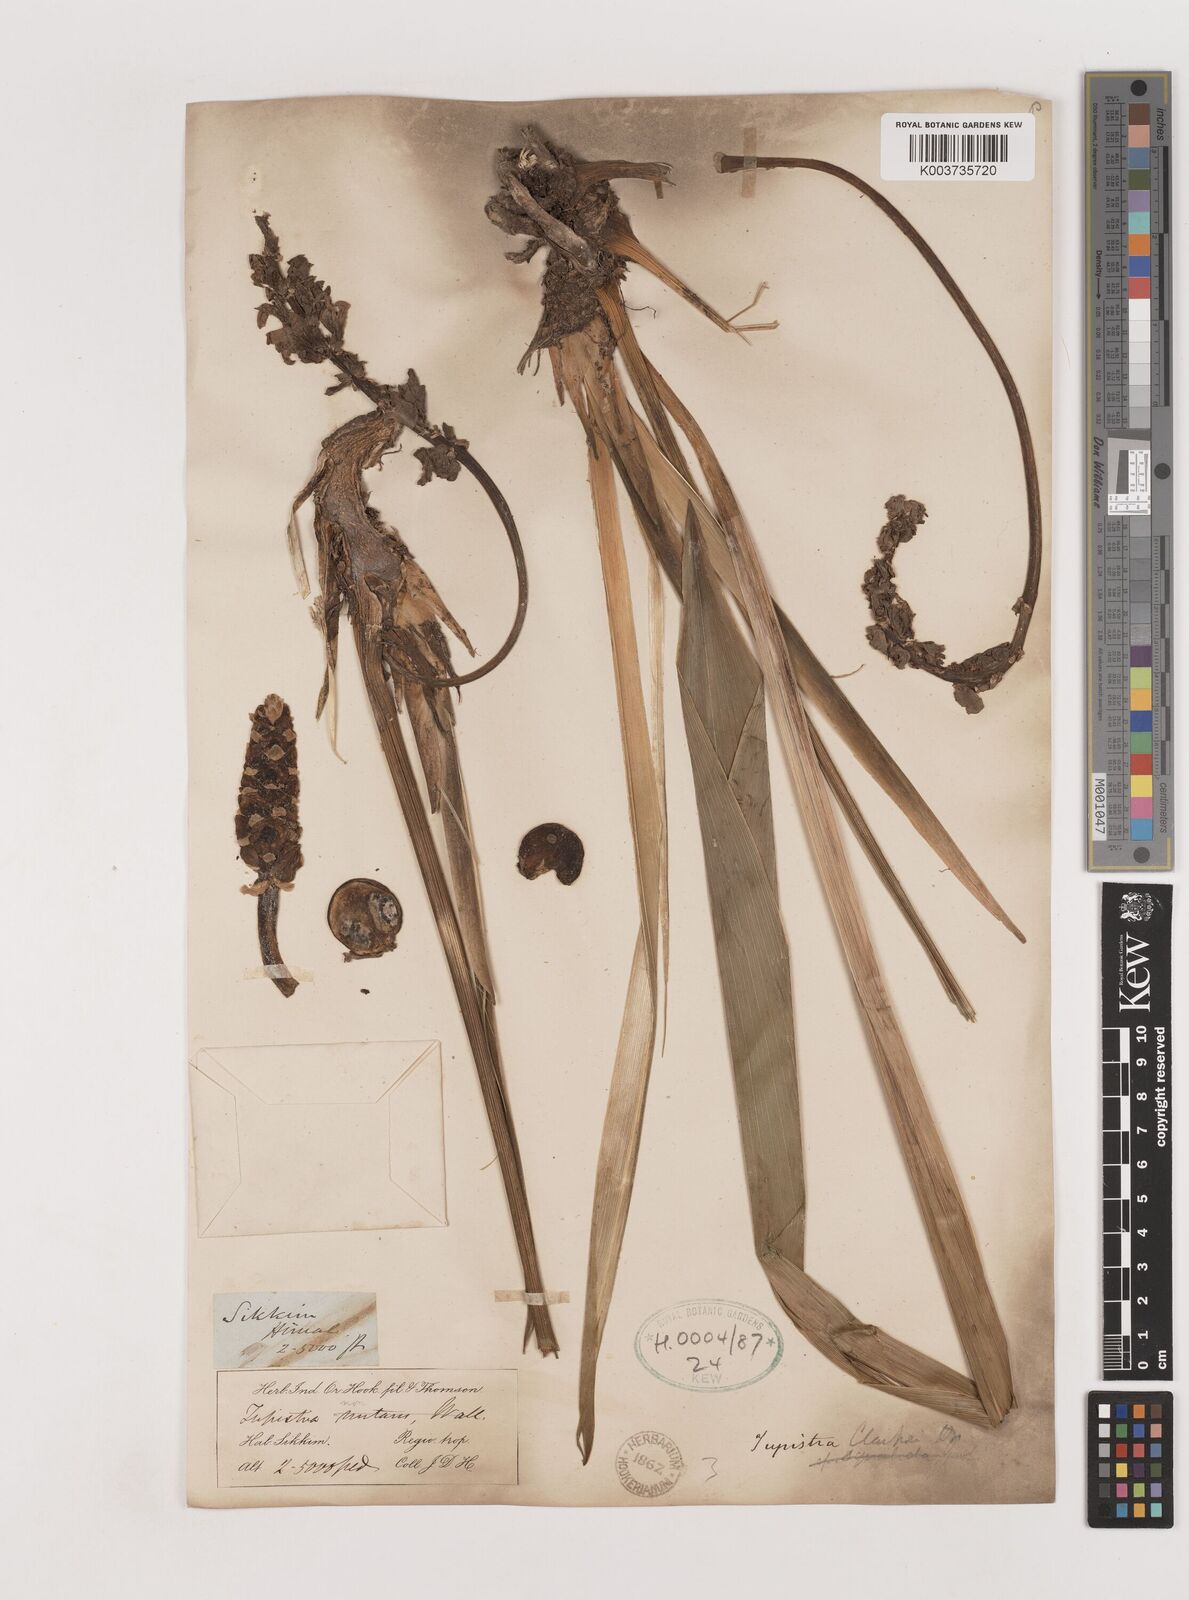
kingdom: Plantae
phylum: Tracheophyta
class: Liliopsida
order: Asparagales
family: Asparagaceae
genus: Tupistra
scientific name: Tupistra clarkei
